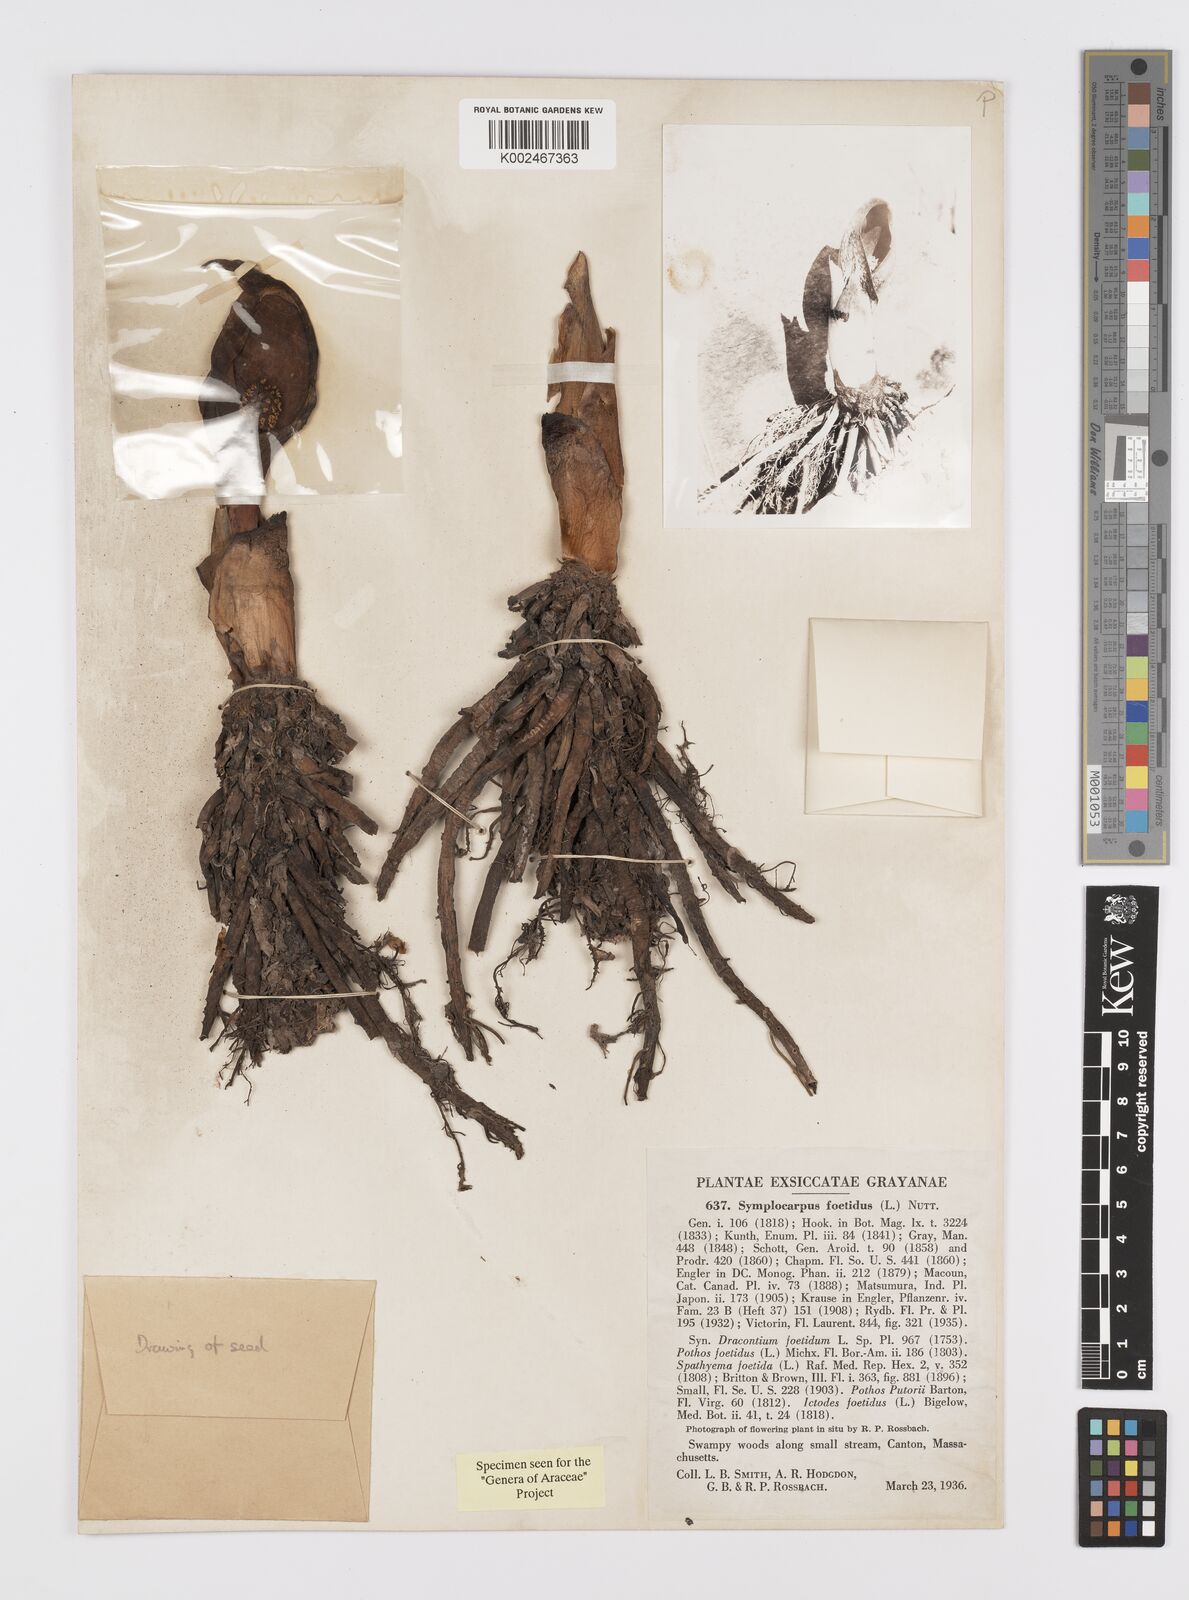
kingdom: Plantae
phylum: Tracheophyta
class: Liliopsida
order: Alismatales
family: Araceae
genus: Symplocarpus
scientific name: Symplocarpus foetidus
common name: Eastern skunk cabbage
